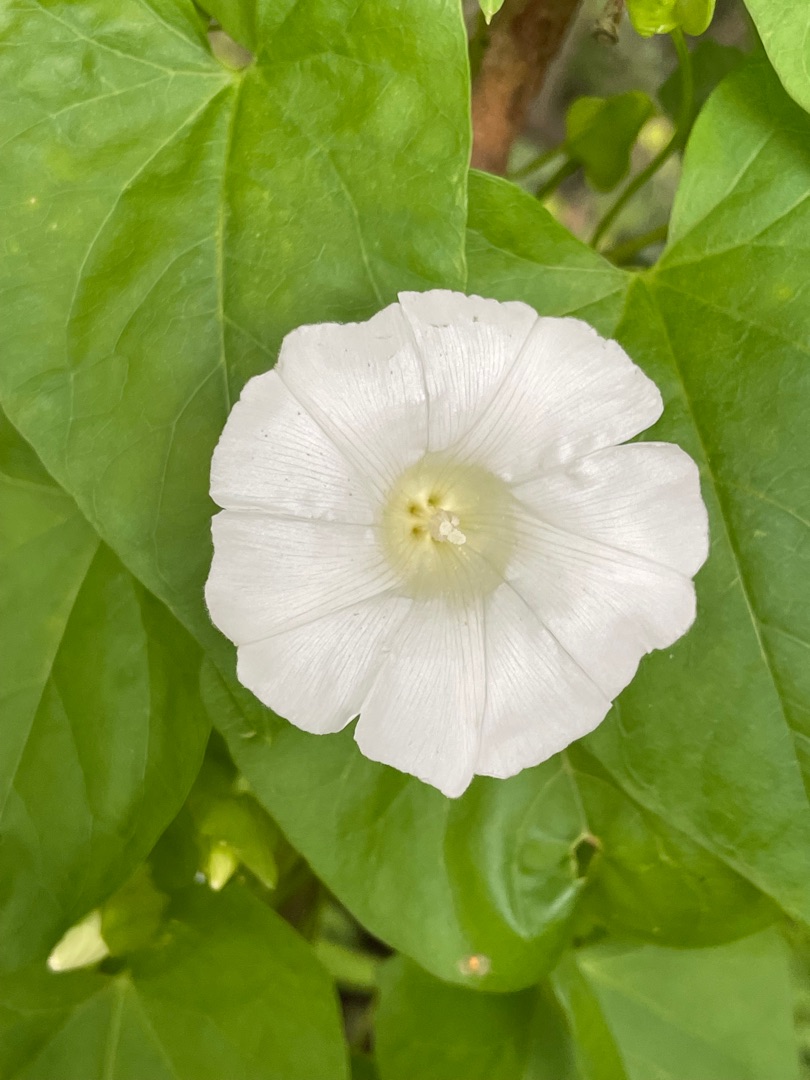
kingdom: Plantae
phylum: Tracheophyta
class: Magnoliopsida
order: Solanales
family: Convolvulaceae
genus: Calystegia
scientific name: Calystegia sepium
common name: Gærde-snerle
